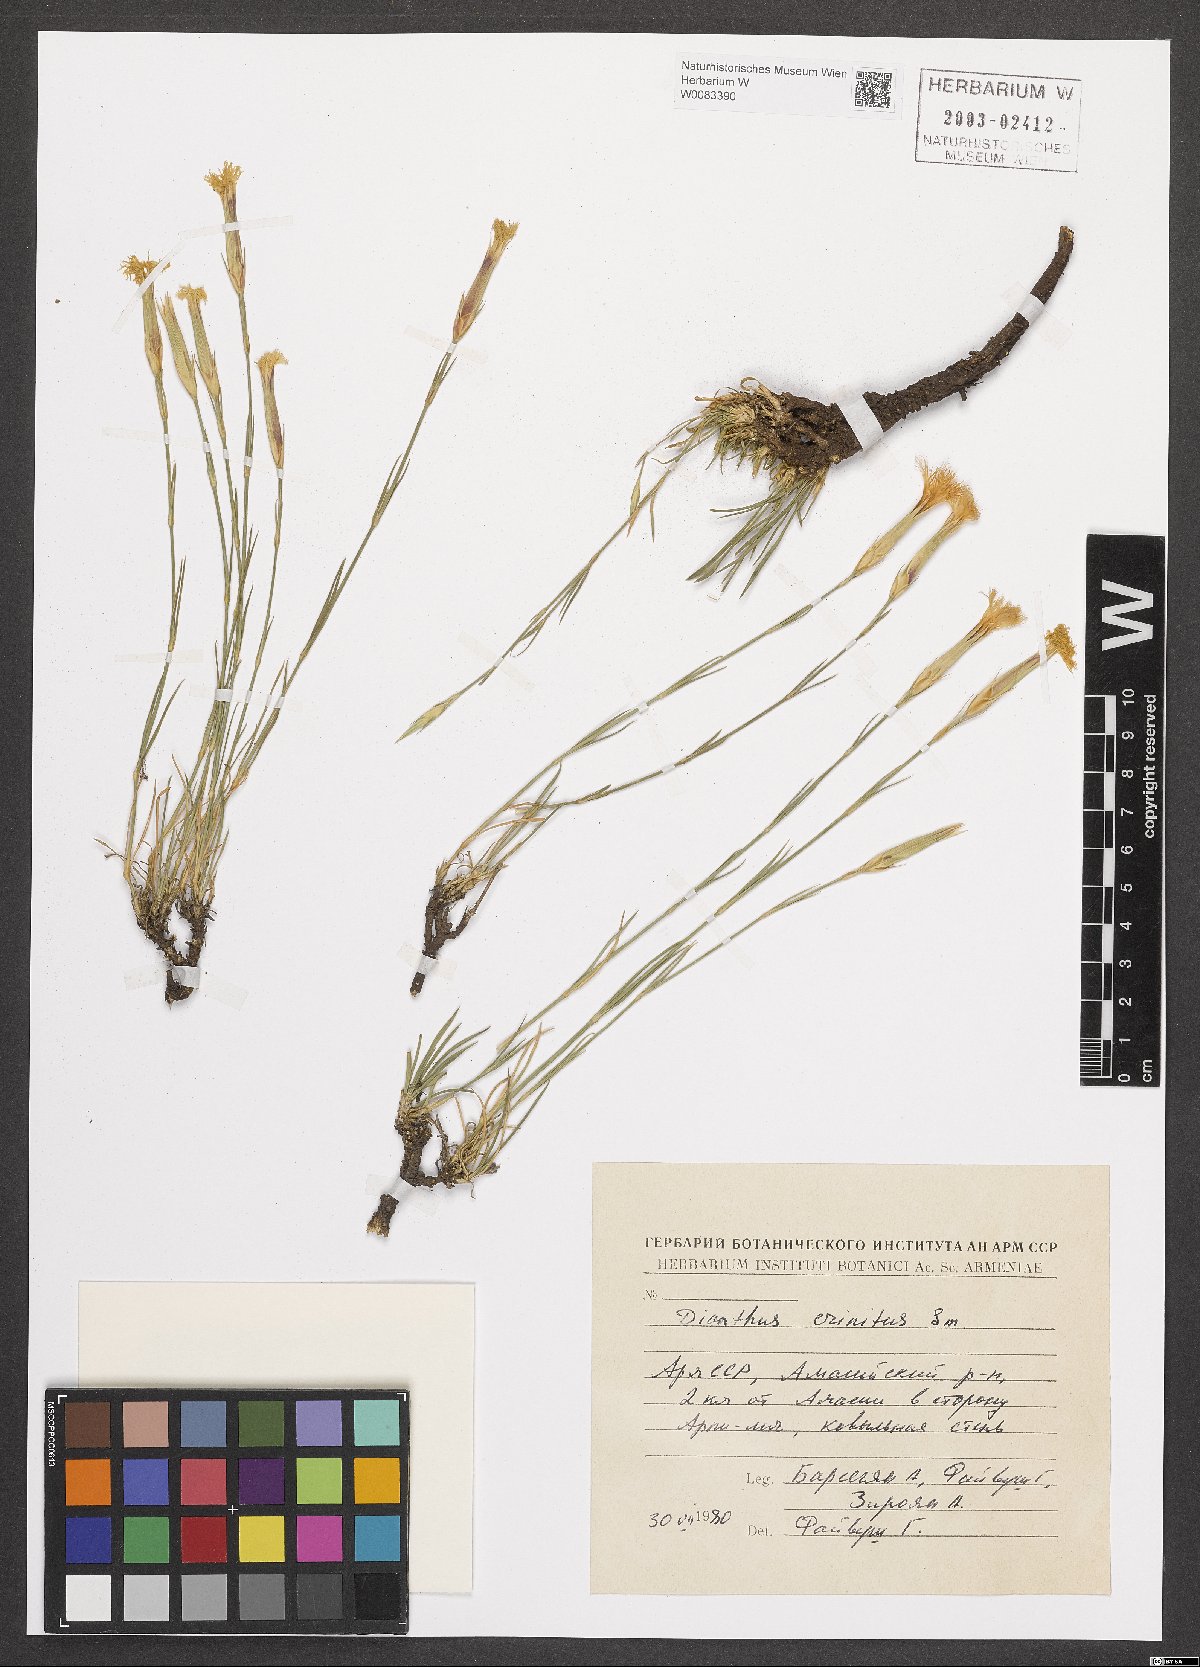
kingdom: Plantae
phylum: Tracheophyta
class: Magnoliopsida
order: Caryophyllales
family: Caryophyllaceae
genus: Dianthus
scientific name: Dianthus crinitus
